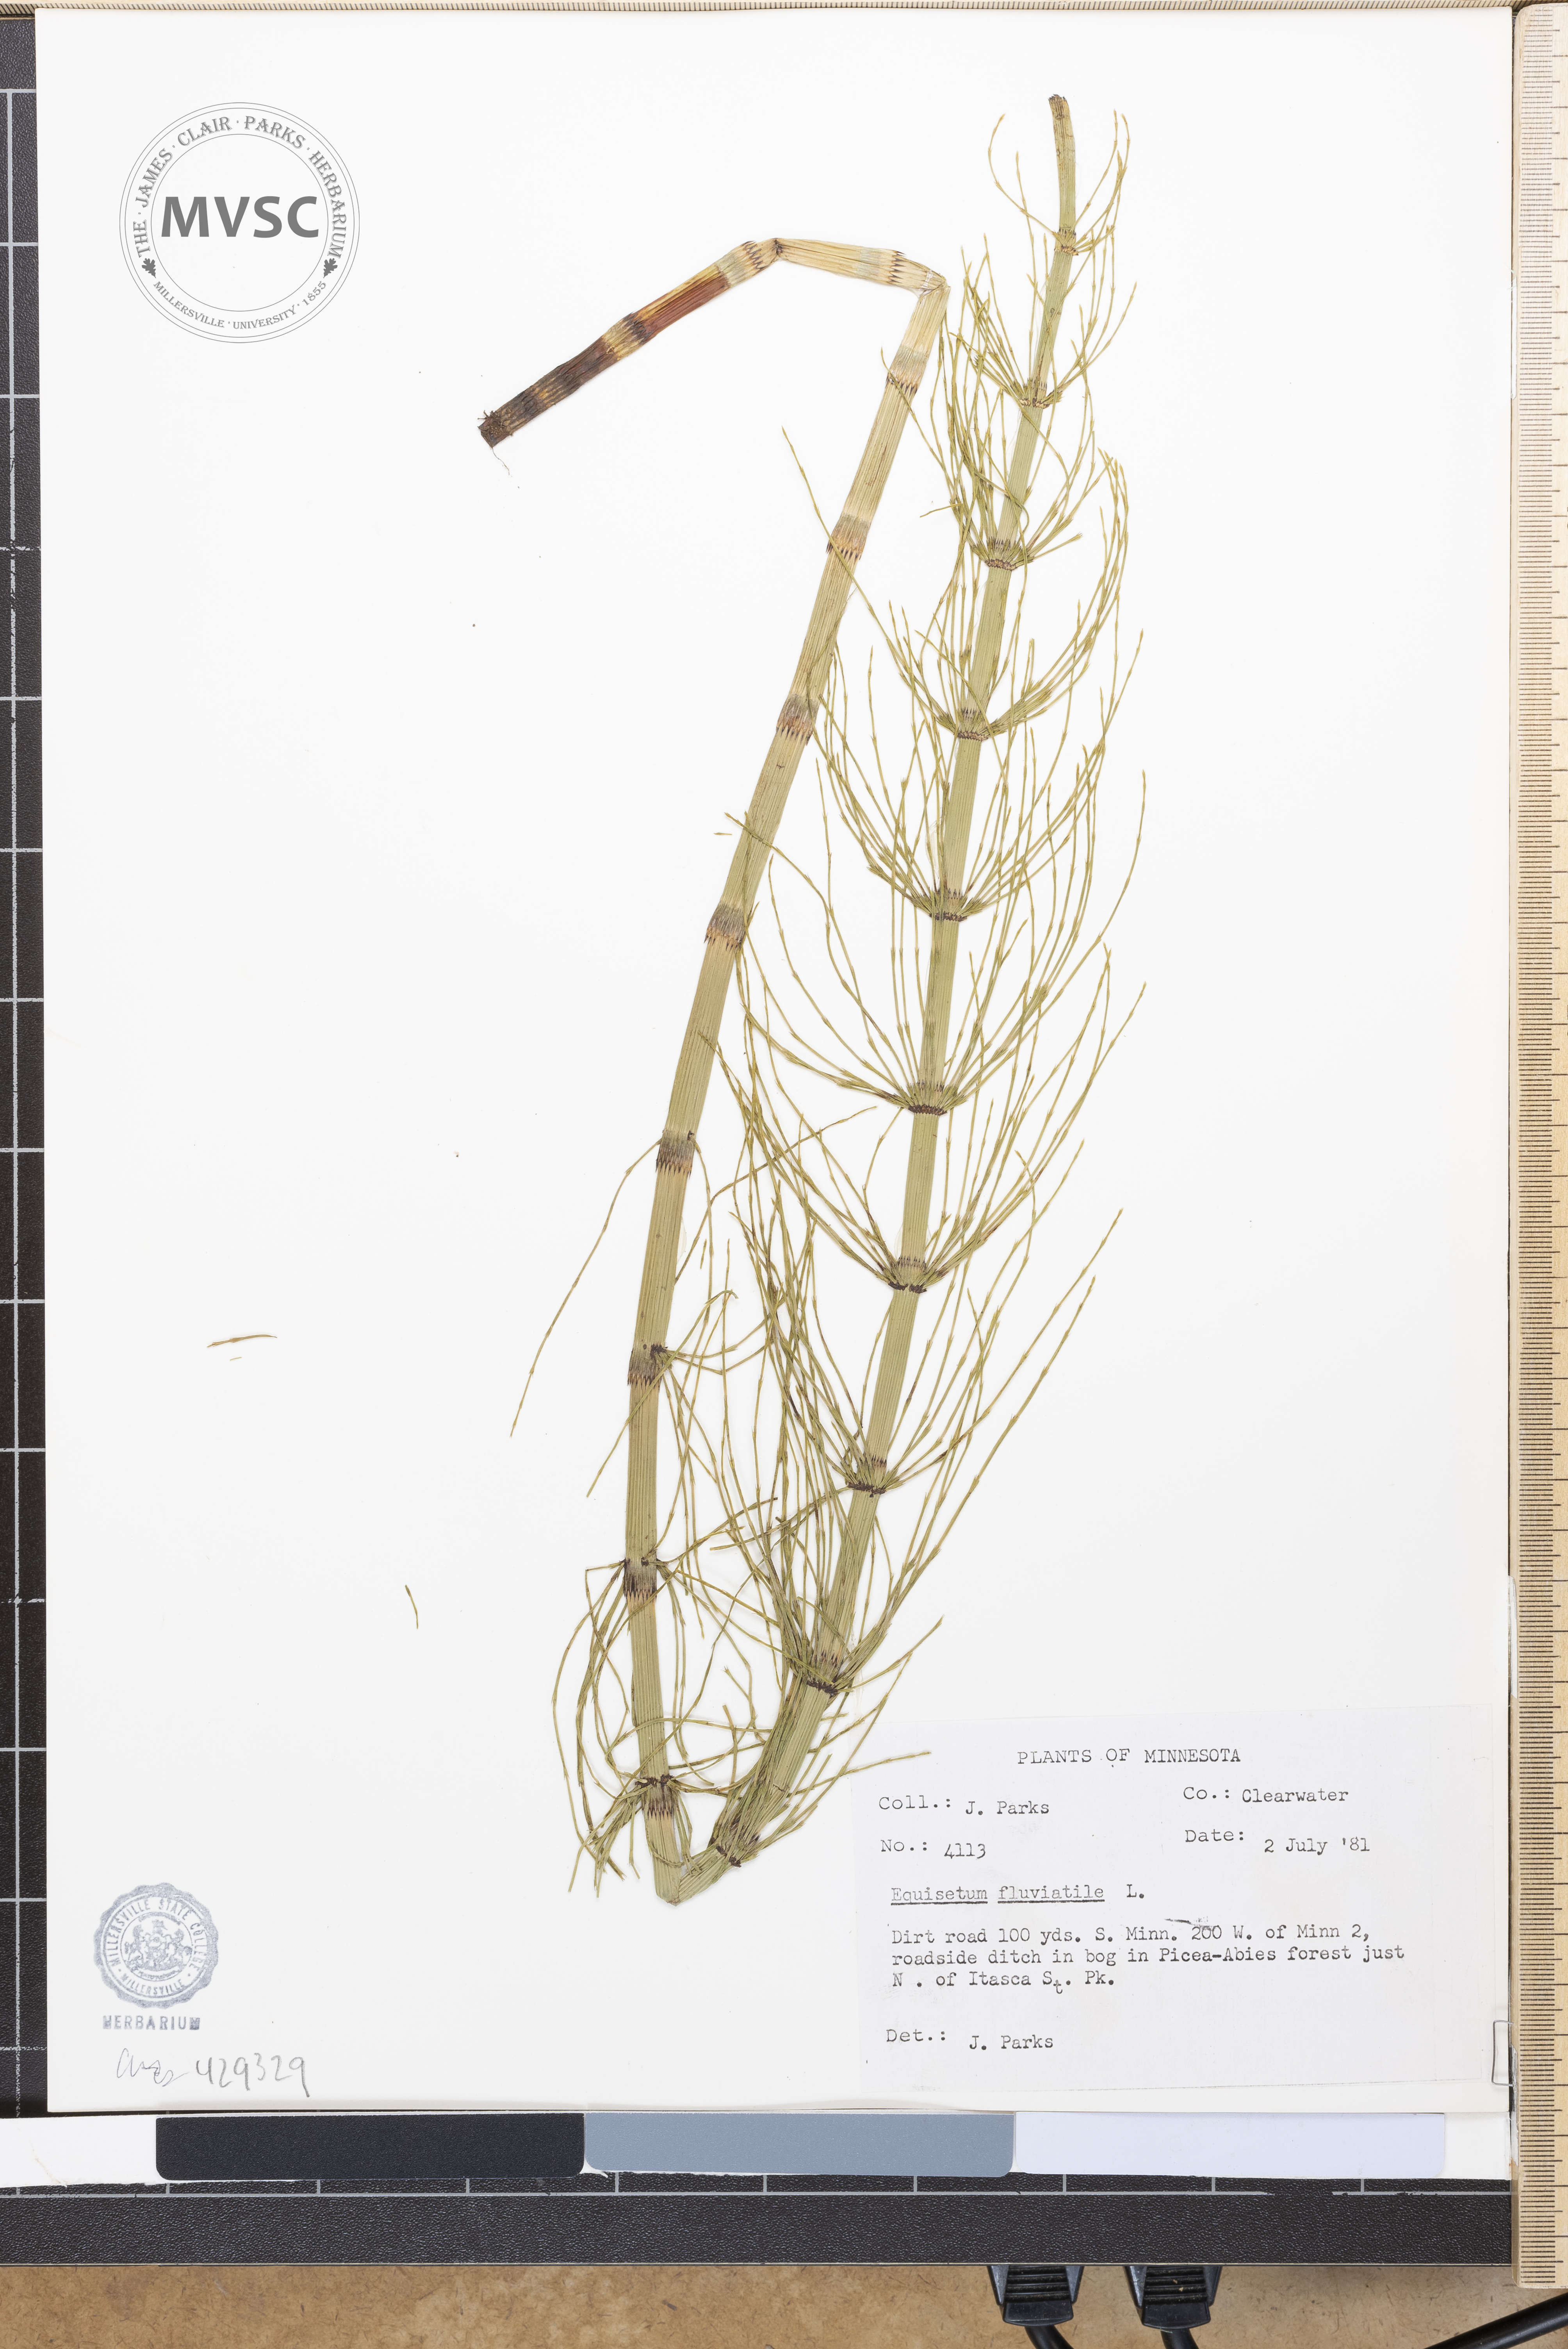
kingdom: Plantae
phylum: Tracheophyta
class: Polypodiopsida
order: Equisetales
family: Equisetaceae
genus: Equisetum
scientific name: Equisetum fluviatile
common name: Water horsetail
